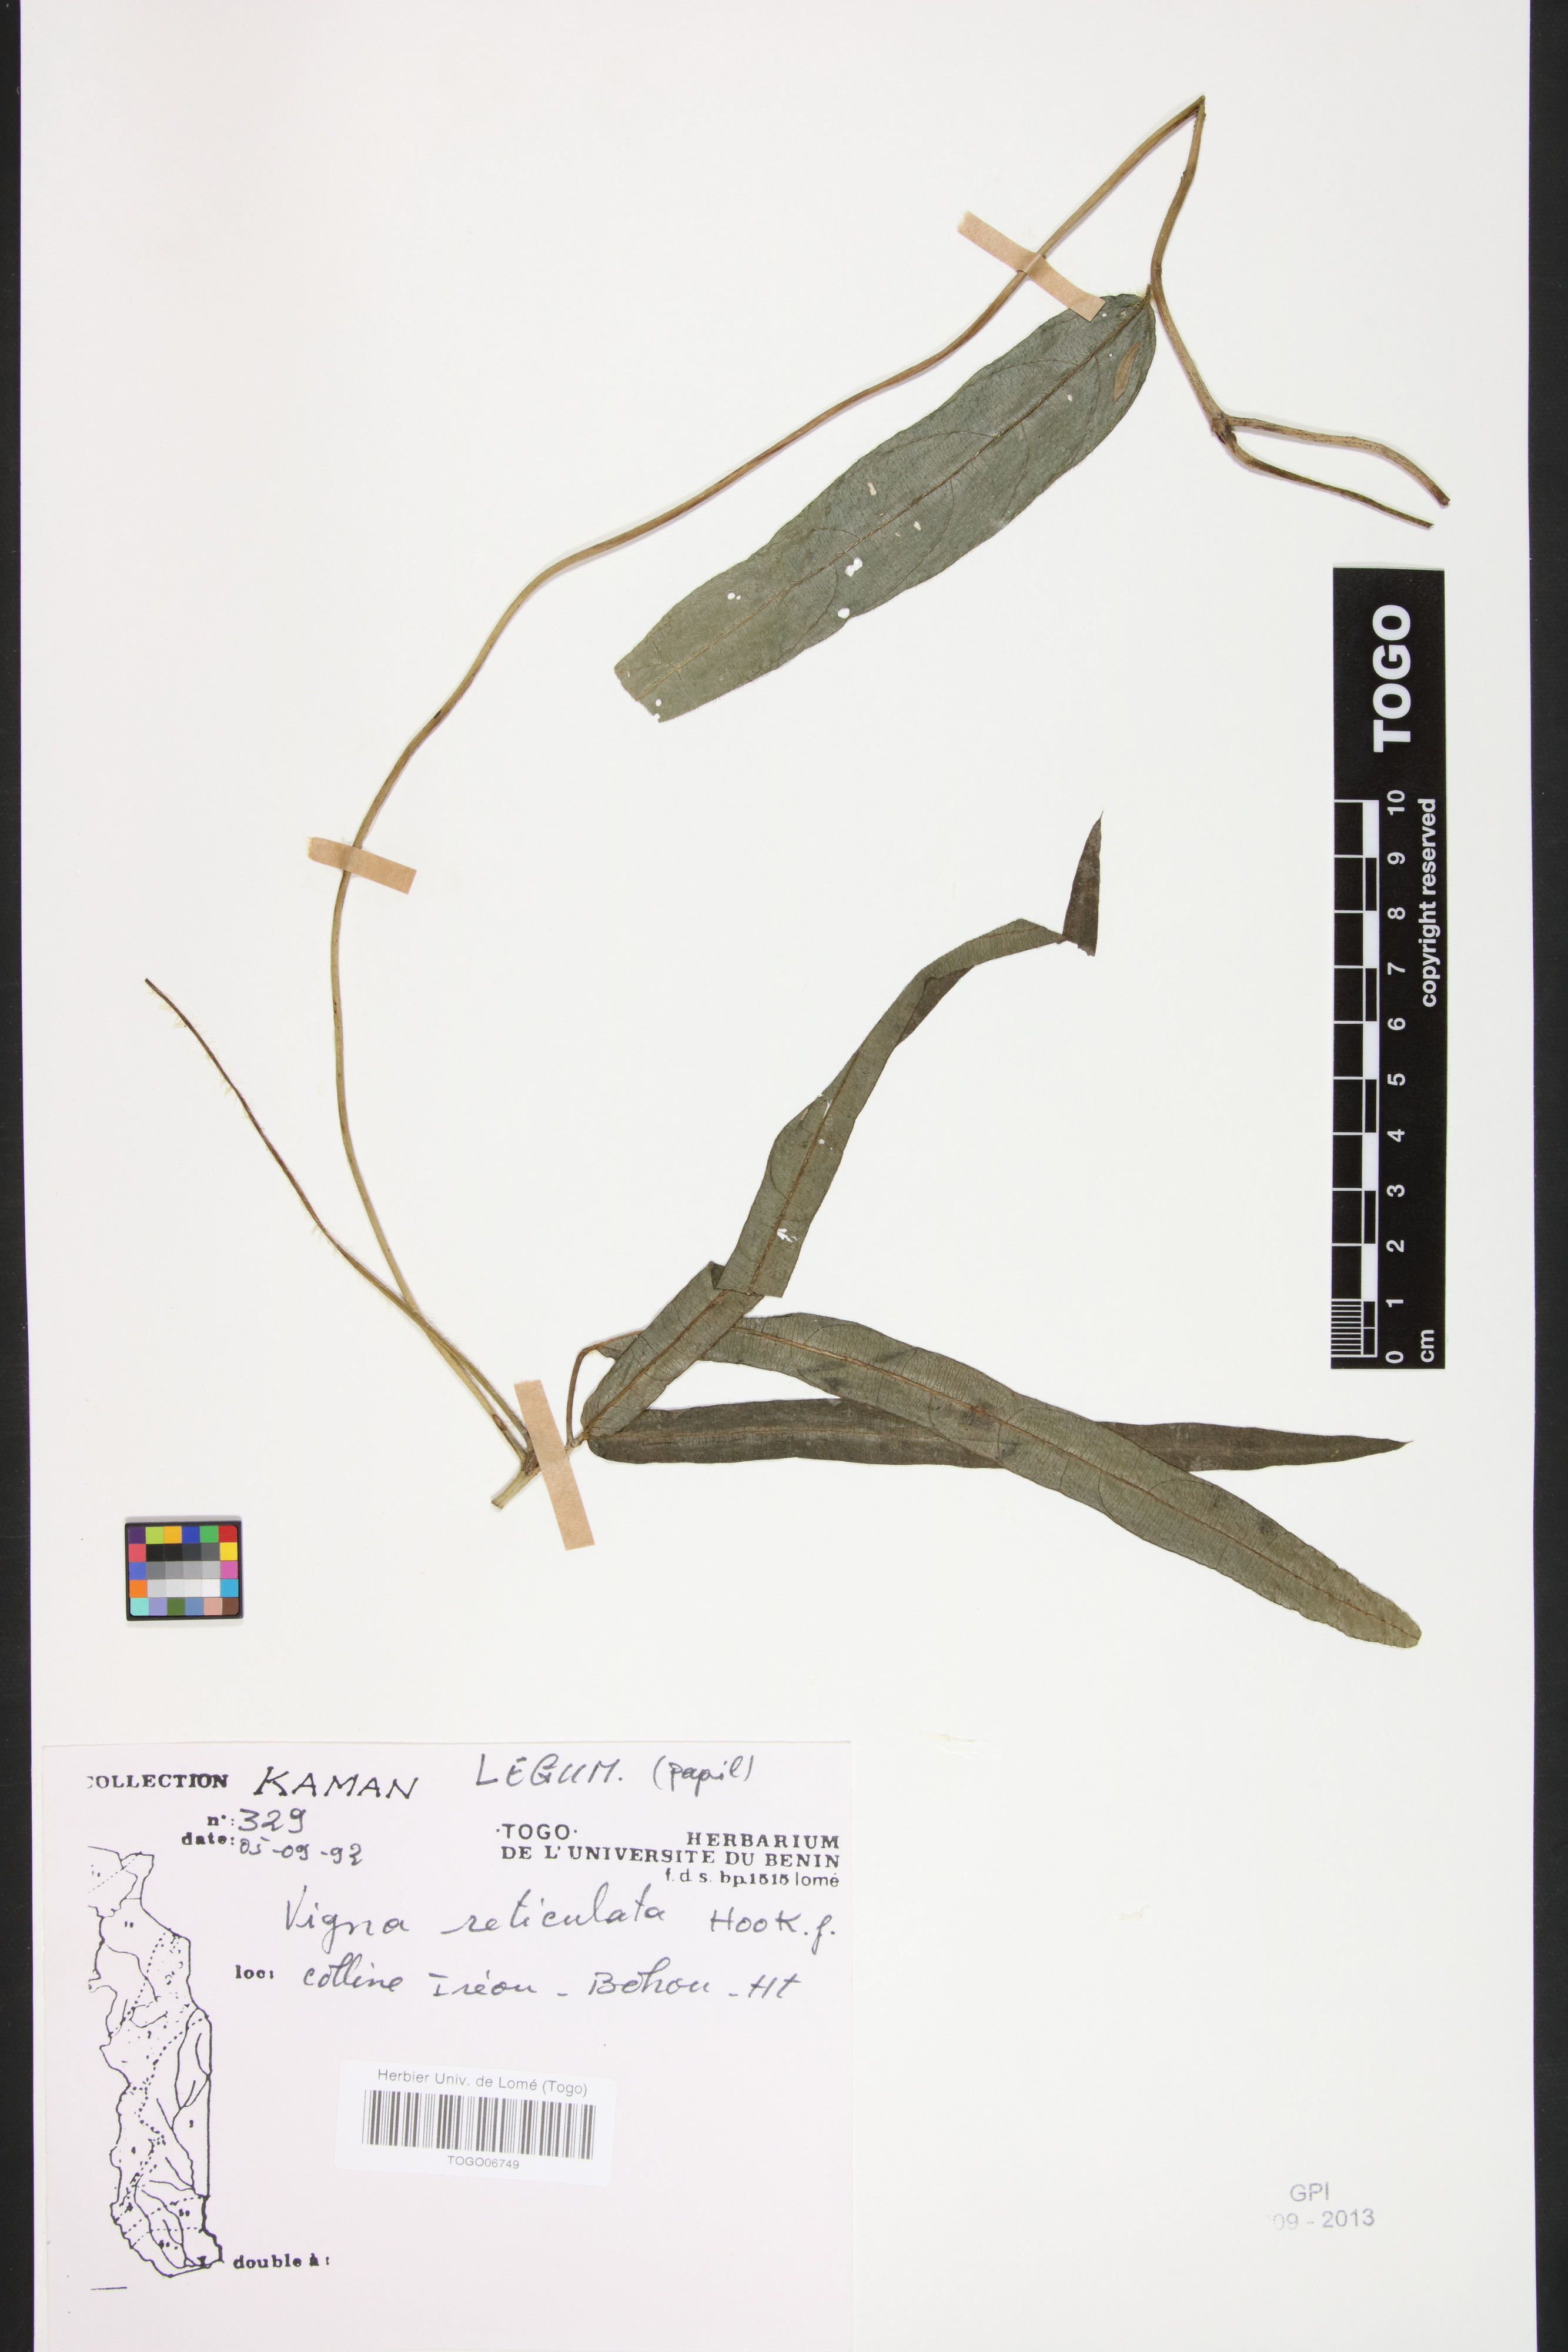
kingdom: Plantae
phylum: Tracheophyta
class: Magnoliopsida
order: Fabales
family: Fabaceae
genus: Vigna
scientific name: Vigna reticulata
